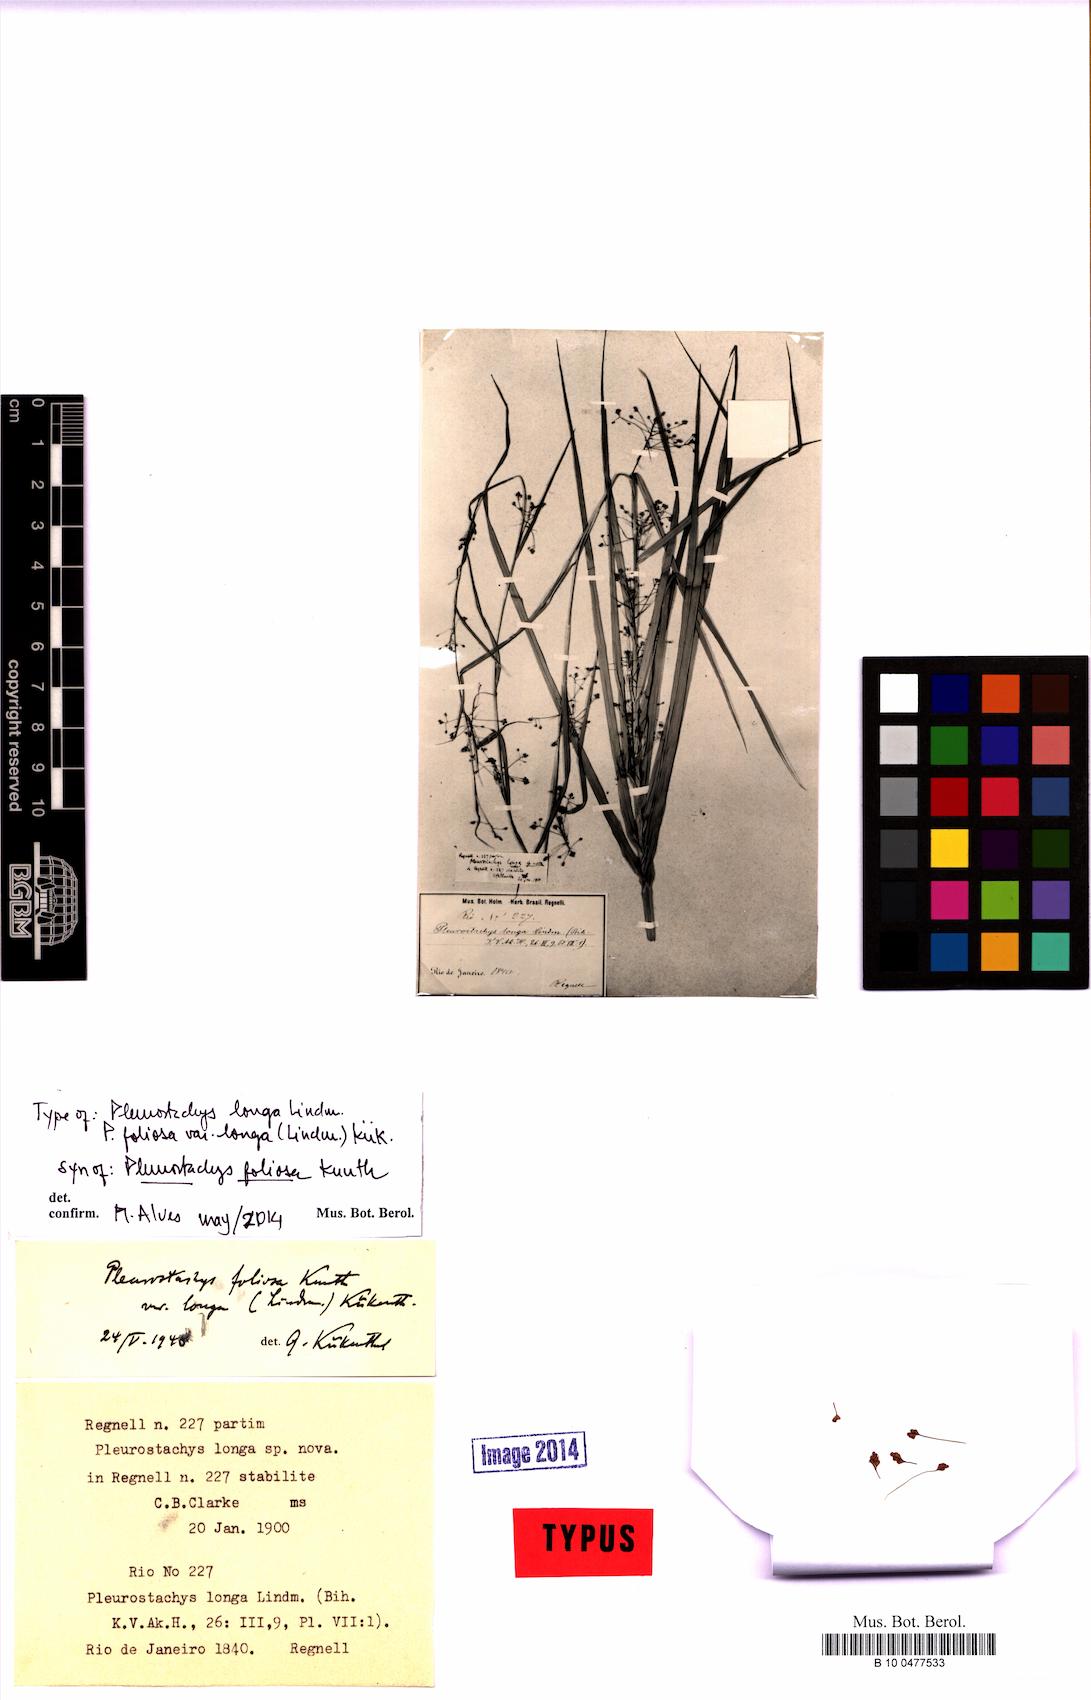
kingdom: Plantae
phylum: Tracheophyta
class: Liliopsida
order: Poales
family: Cyperaceae
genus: Rhynchospora
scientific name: Rhynchospora foliosa
